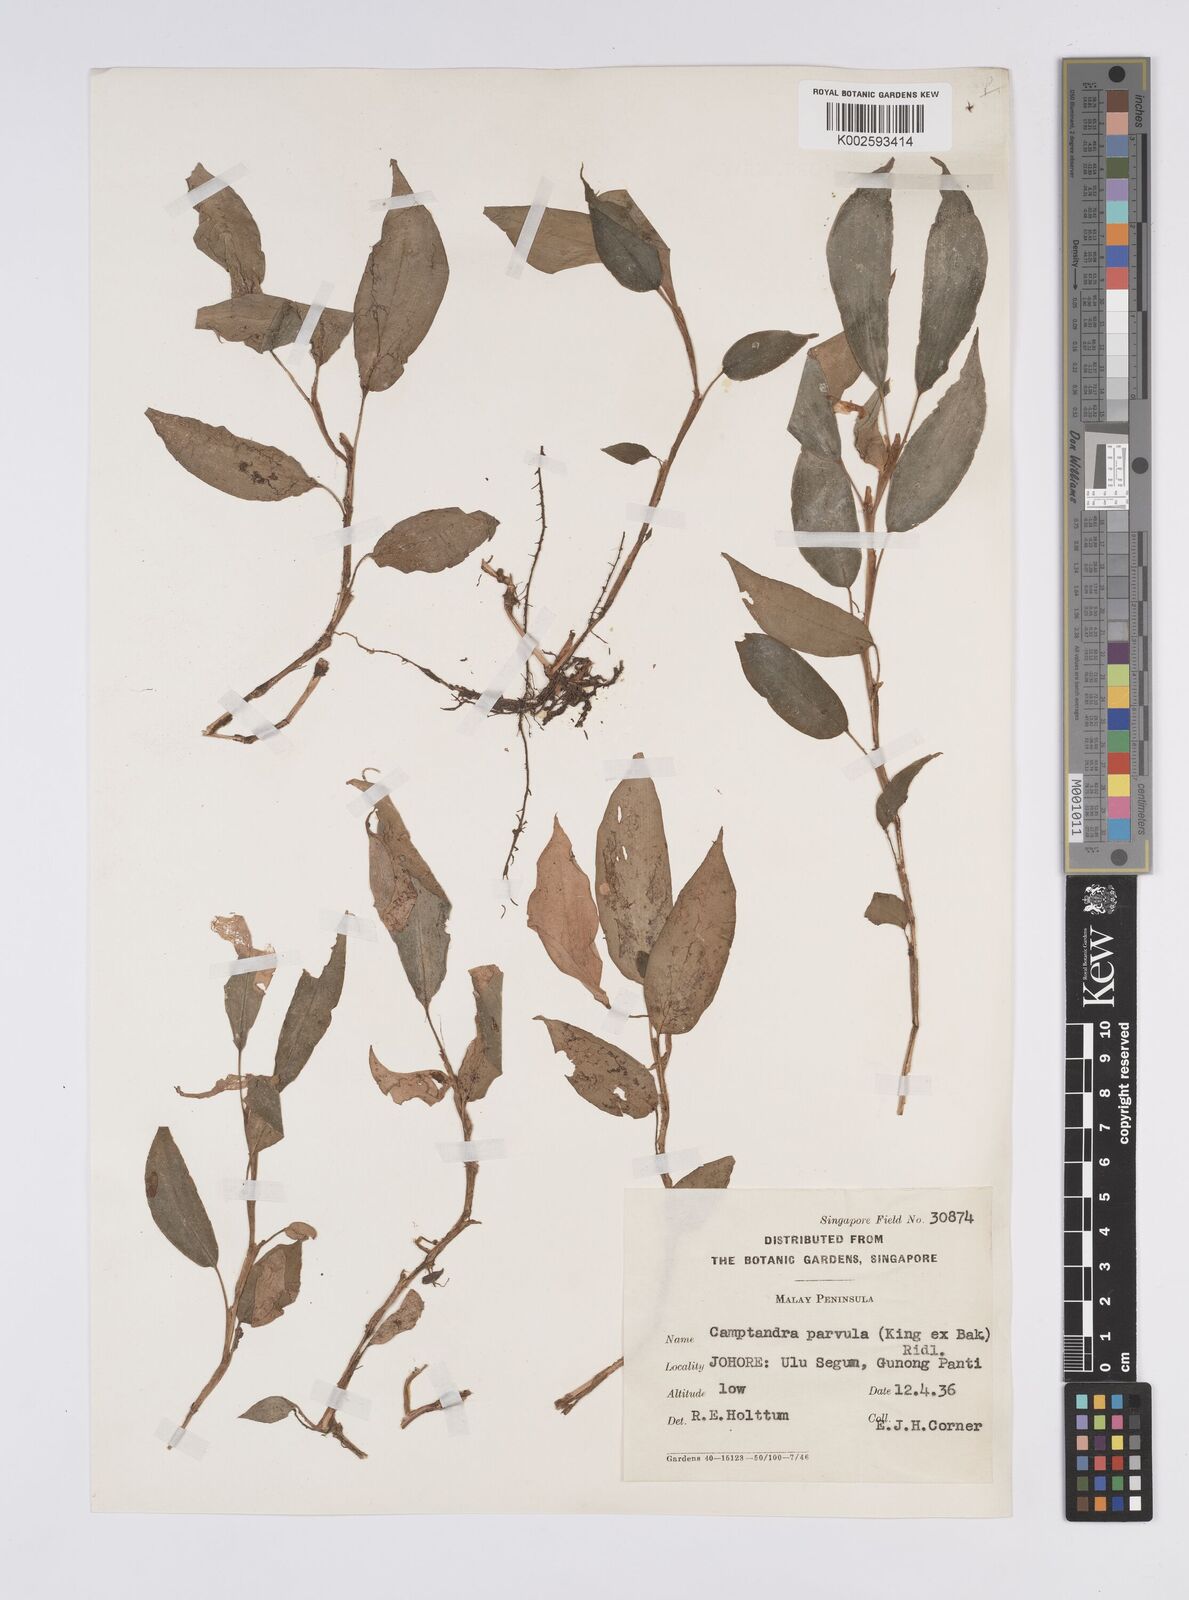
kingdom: Plantae
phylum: Tracheophyta
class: Liliopsida
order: Zingiberales
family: Zingiberaceae
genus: Camptandra
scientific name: Camptandra parvula
